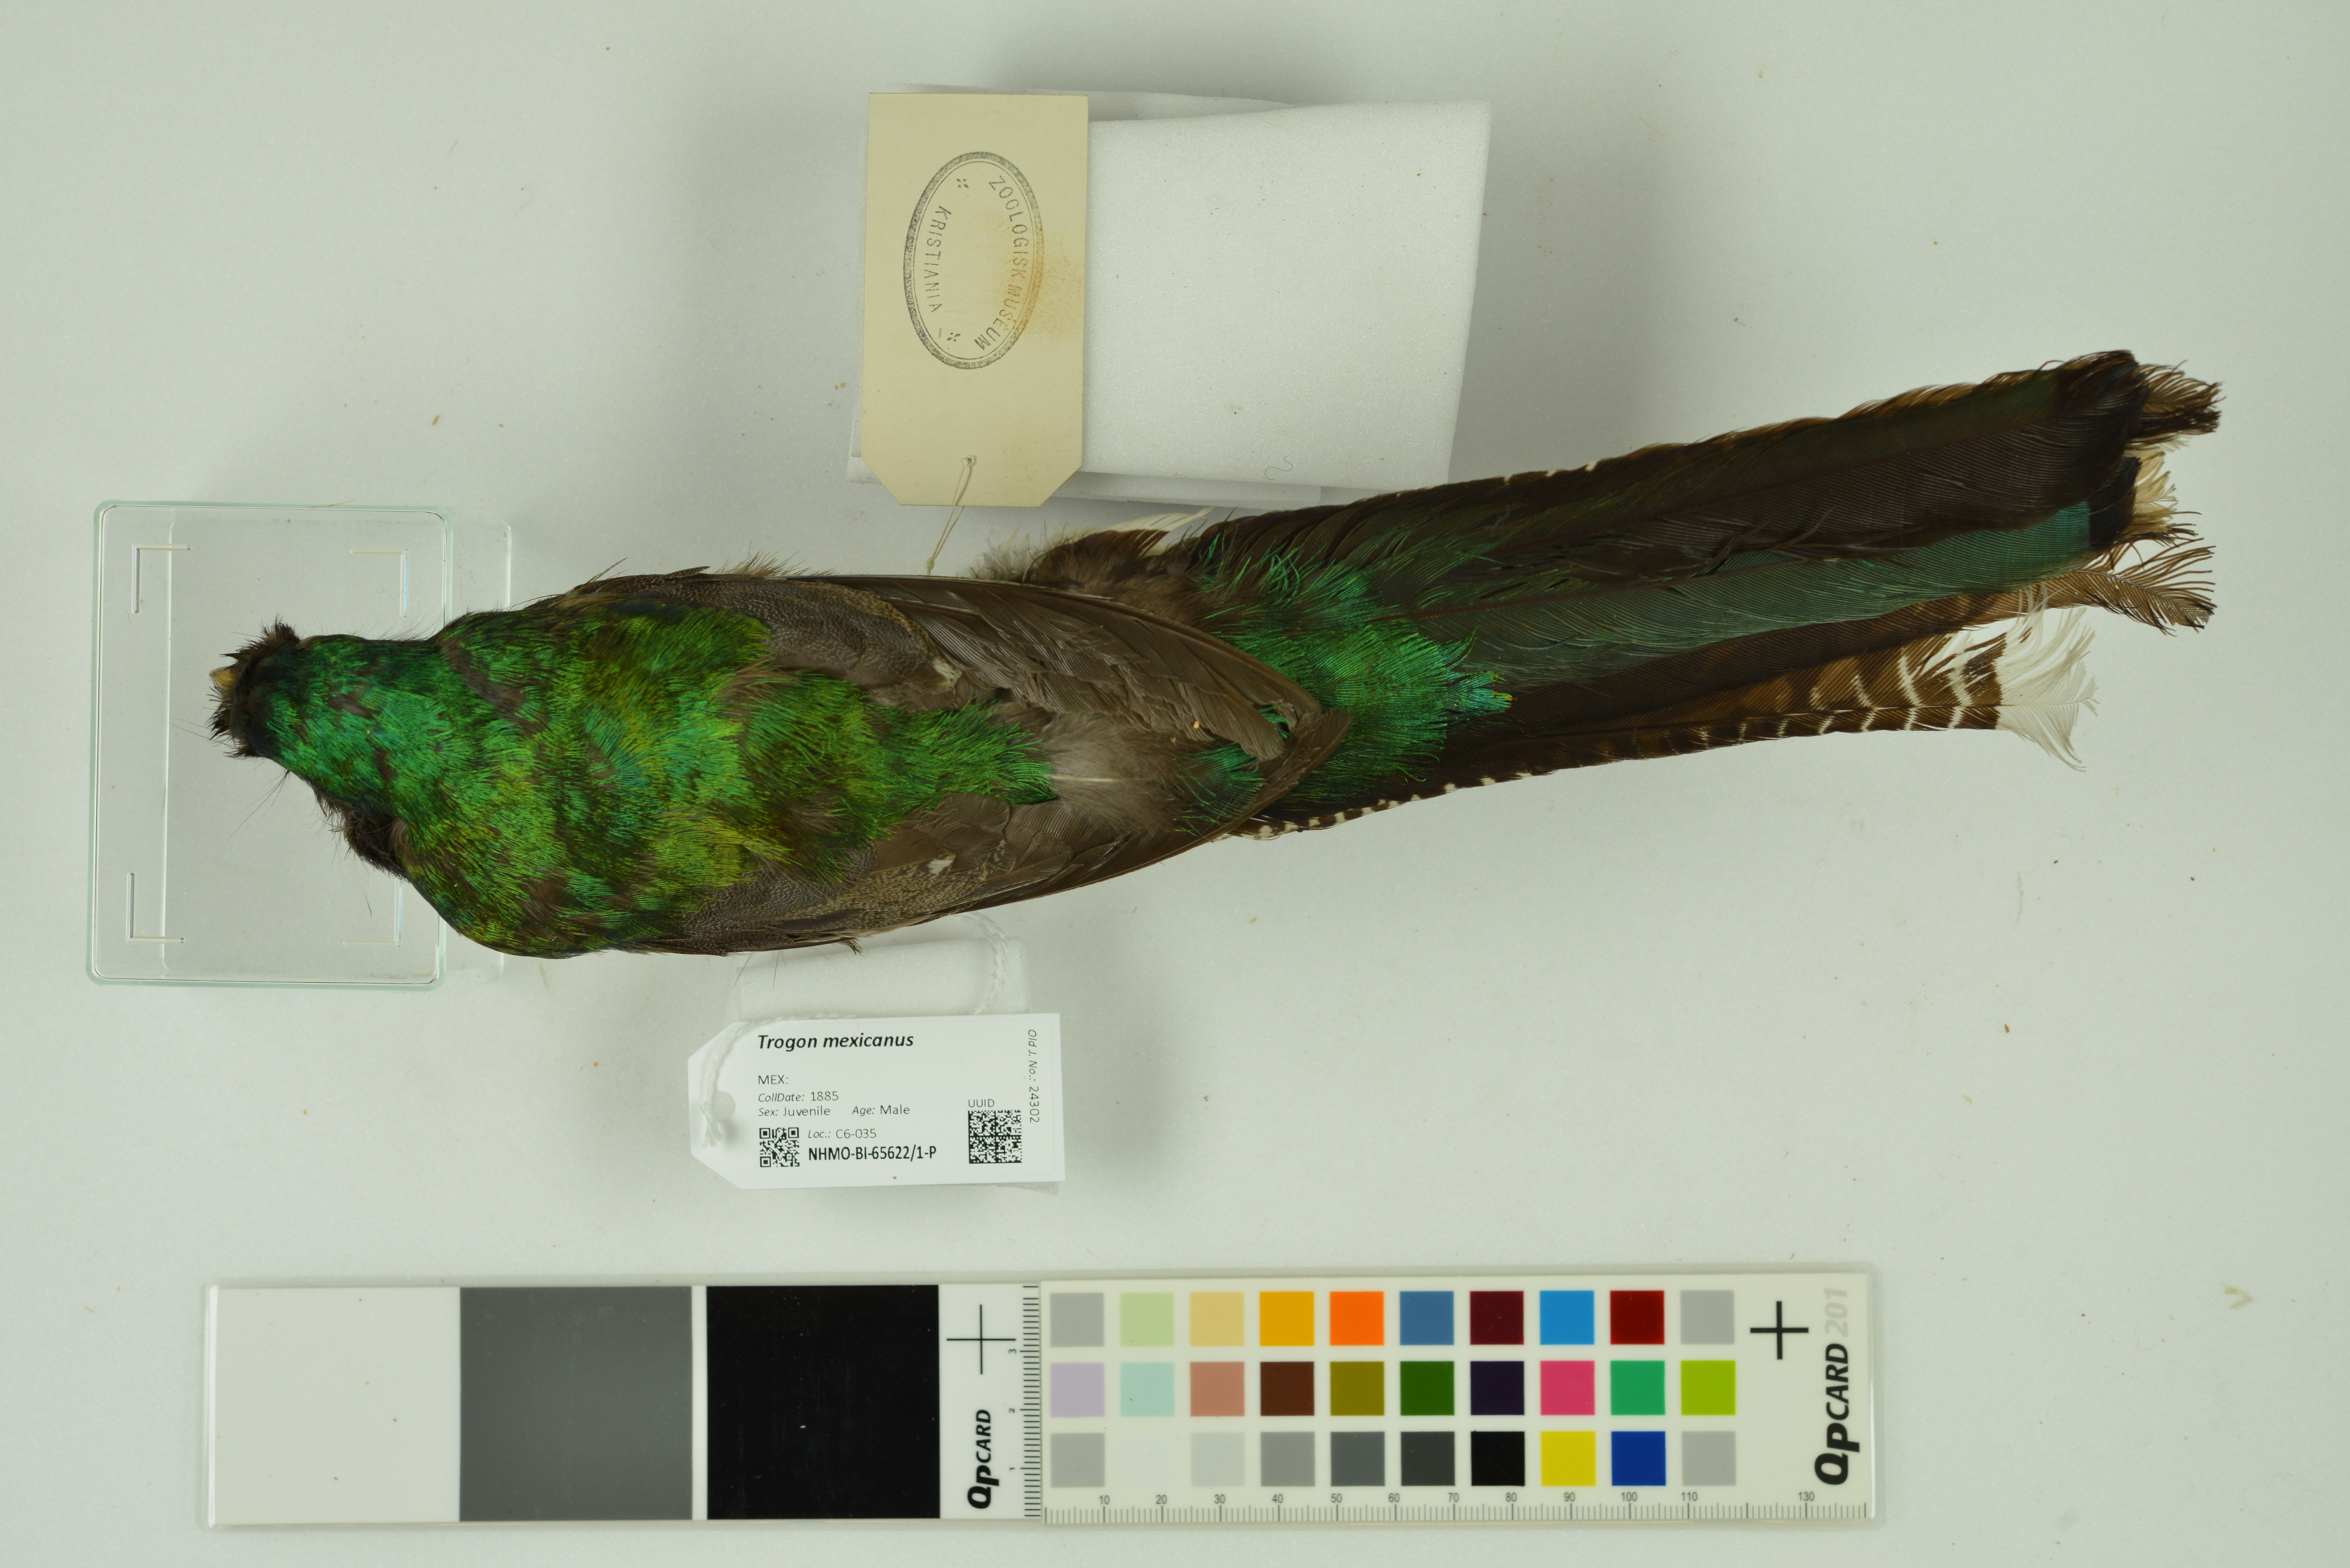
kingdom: Animalia
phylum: Chordata
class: Aves
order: Trogoniformes
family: Trogonidae
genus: Trogon
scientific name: Trogon mexicanus
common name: Mountain trogon
